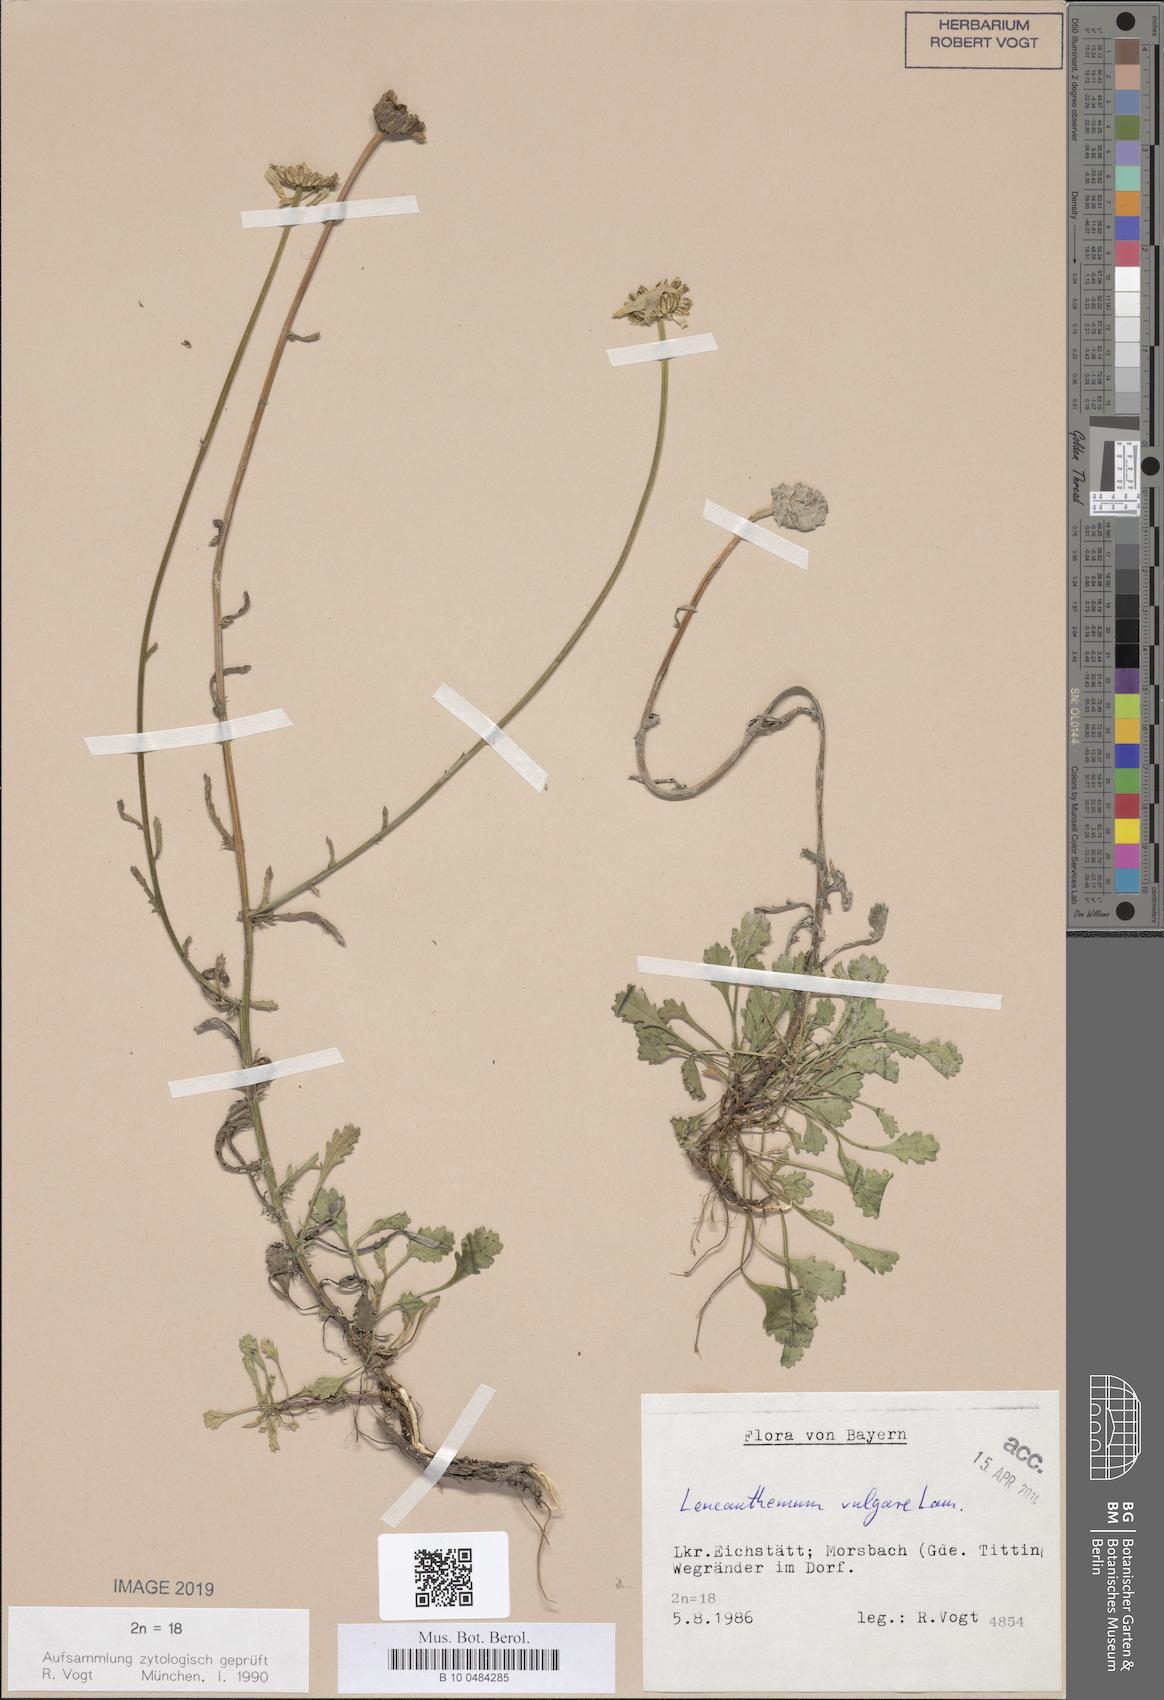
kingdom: Plantae
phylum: Tracheophyta
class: Magnoliopsida
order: Asterales
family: Asteraceae
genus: Leucanthemum
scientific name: Leucanthemum vulgare
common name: Oxeye daisy
